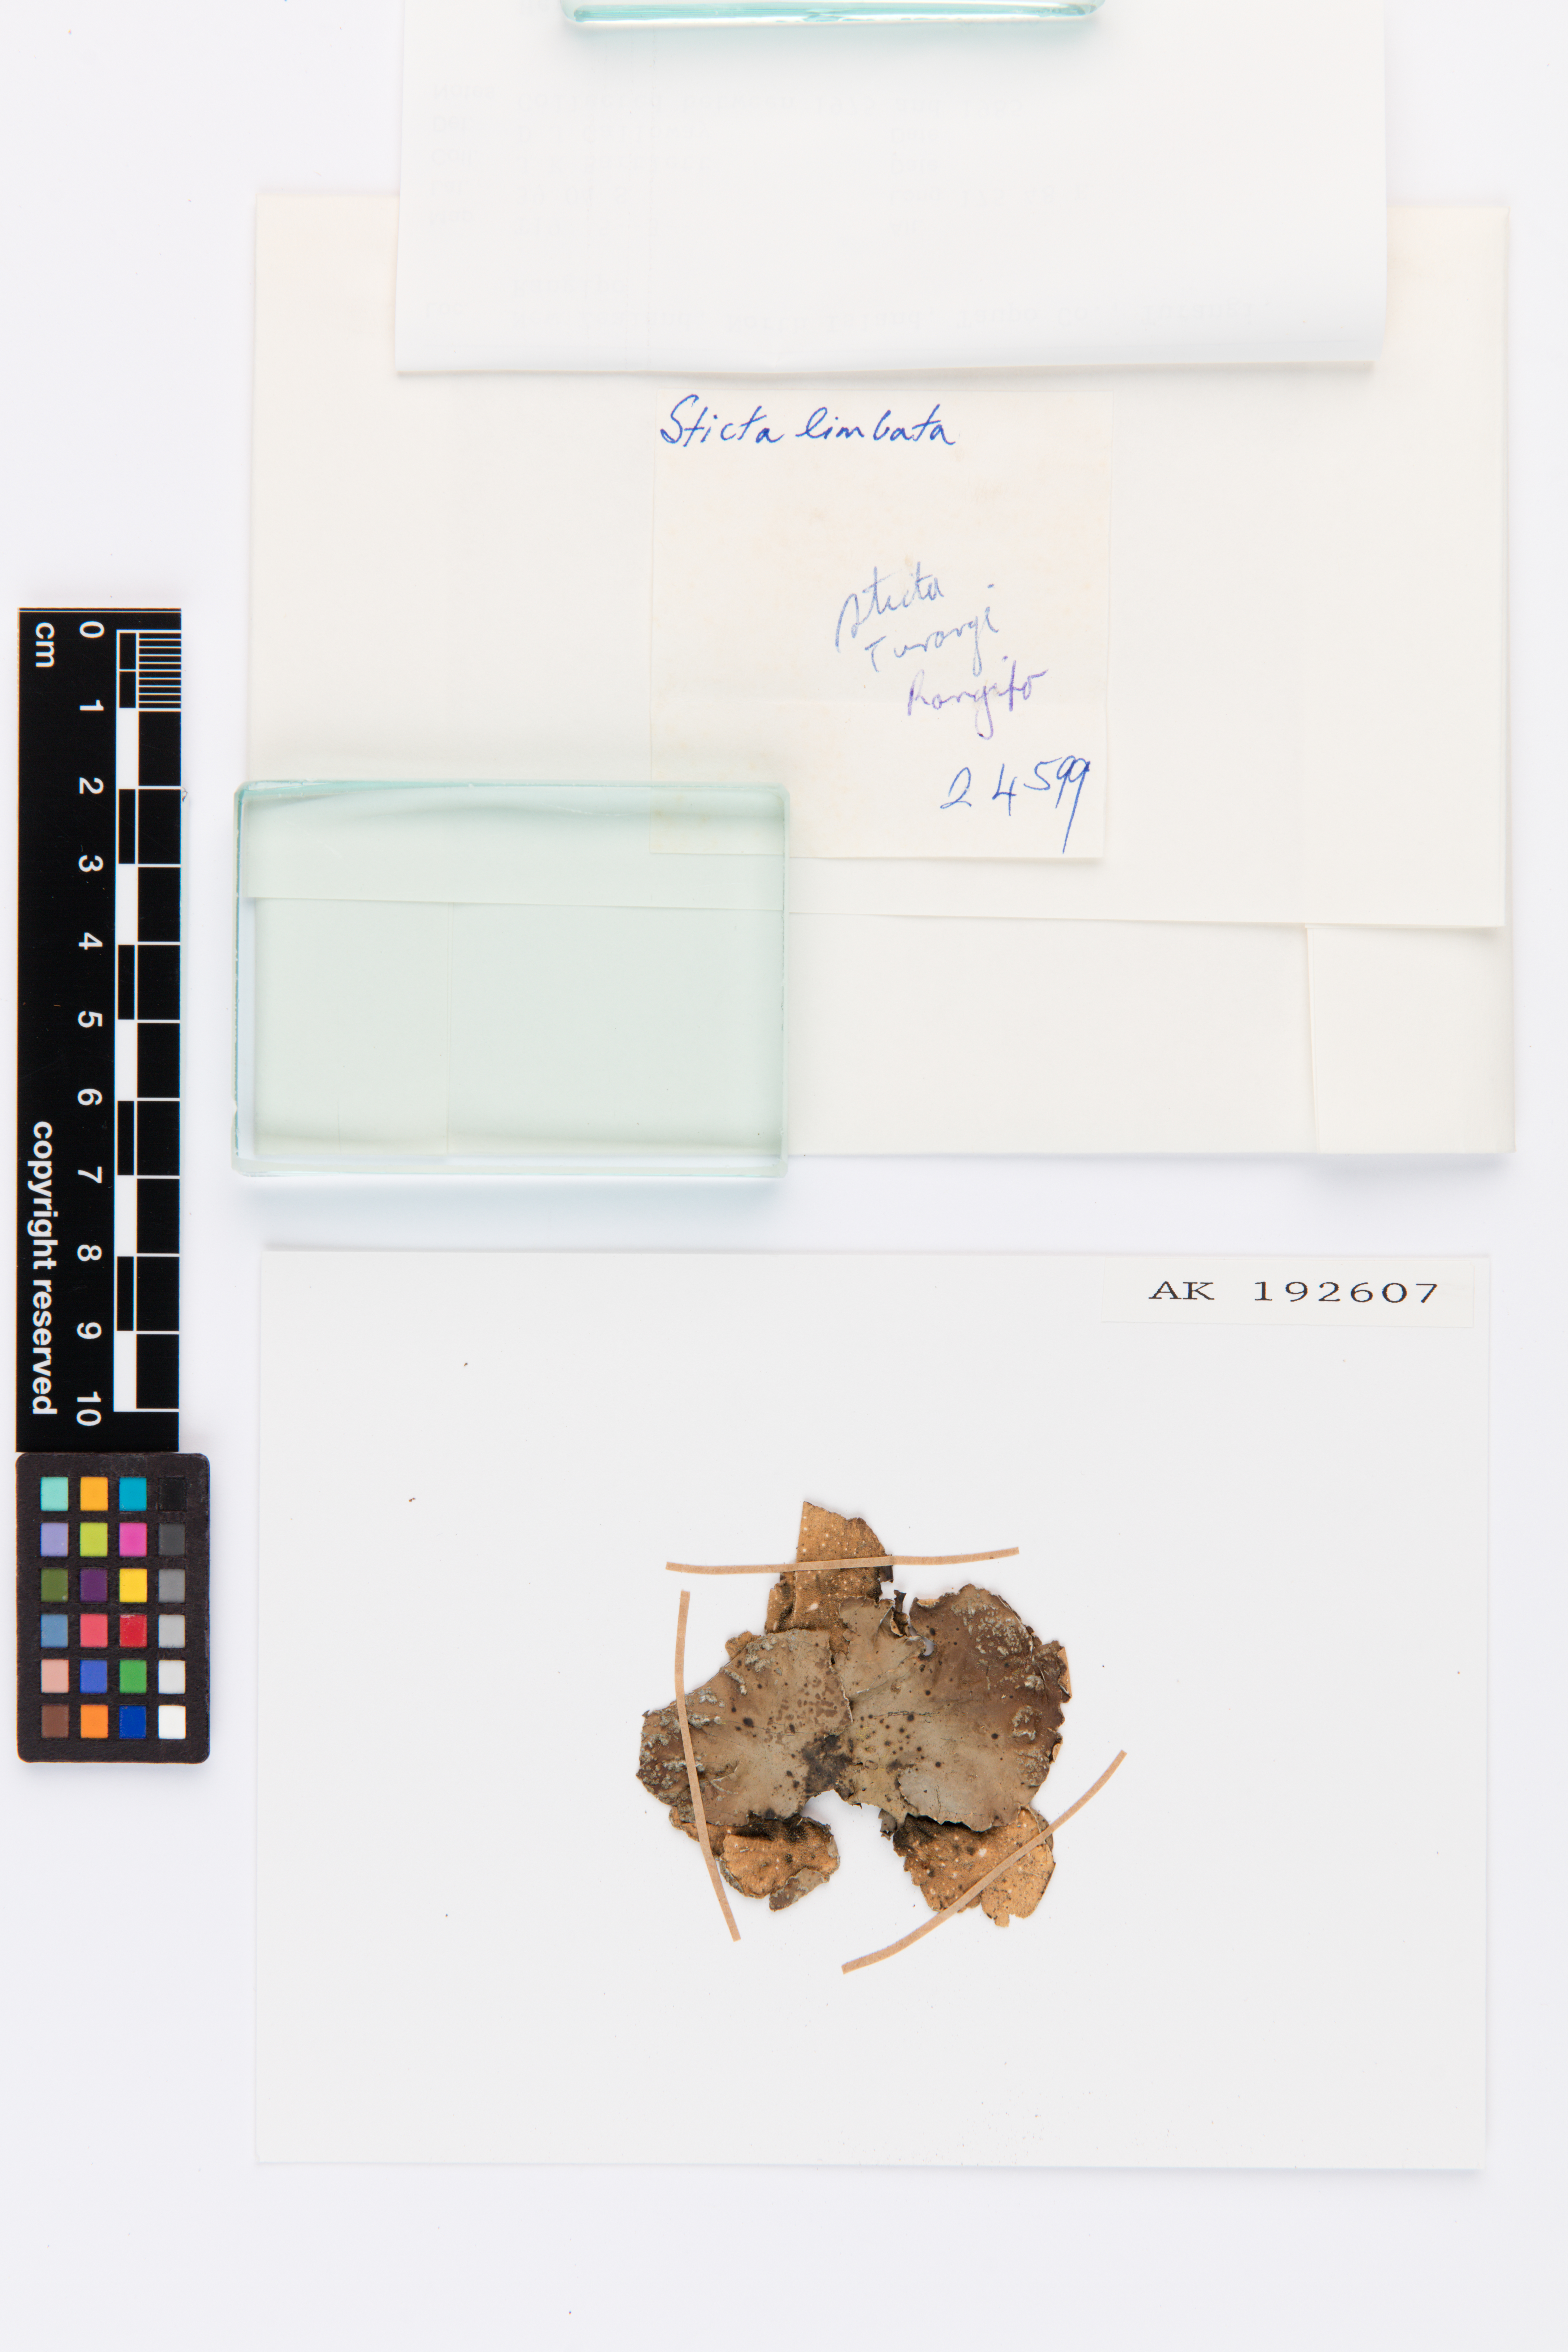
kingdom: Fungi
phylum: Ascomycota
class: Lecanoromycetes
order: Peltigerales
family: Lobariaceae
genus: Sticta
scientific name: Sticta limbata
